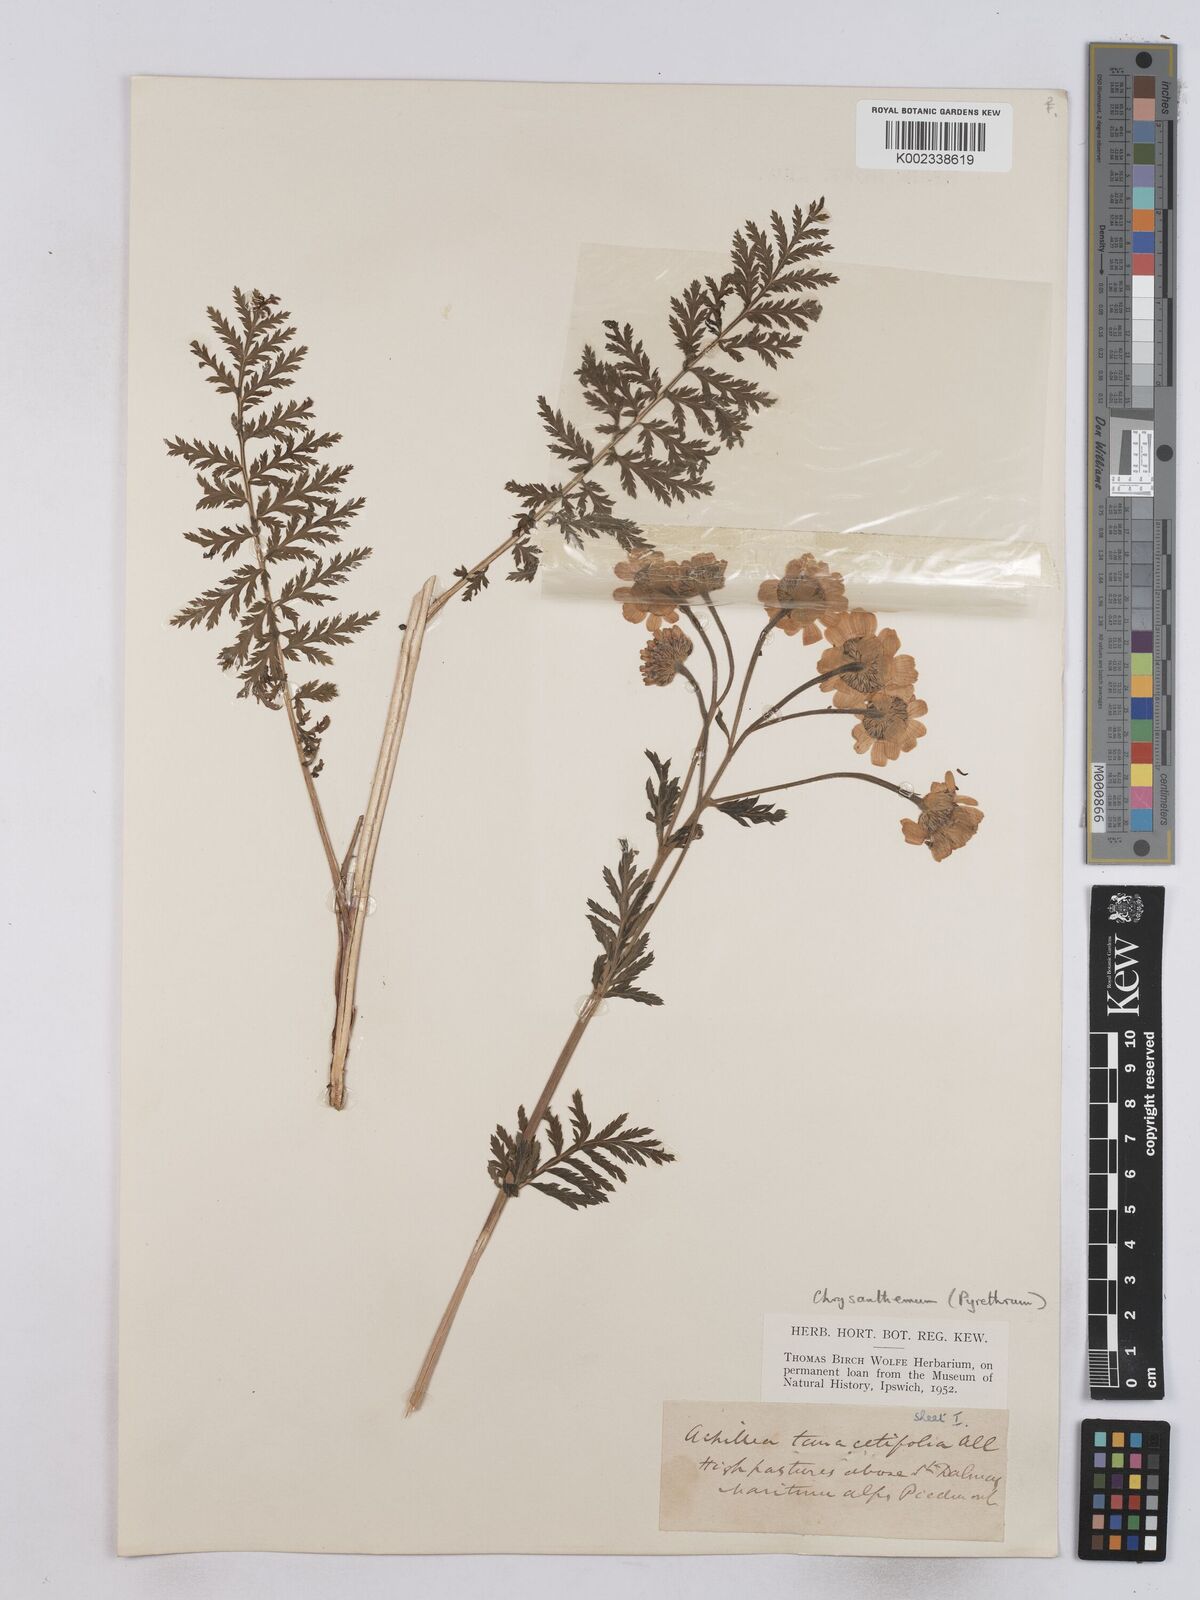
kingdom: Plantae
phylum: Tracheophyta
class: Magnoliopsida
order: Asterales
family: Asteraceae
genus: Tanacetum
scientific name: Tanacetum corymbosum
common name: Scentless feverfew
